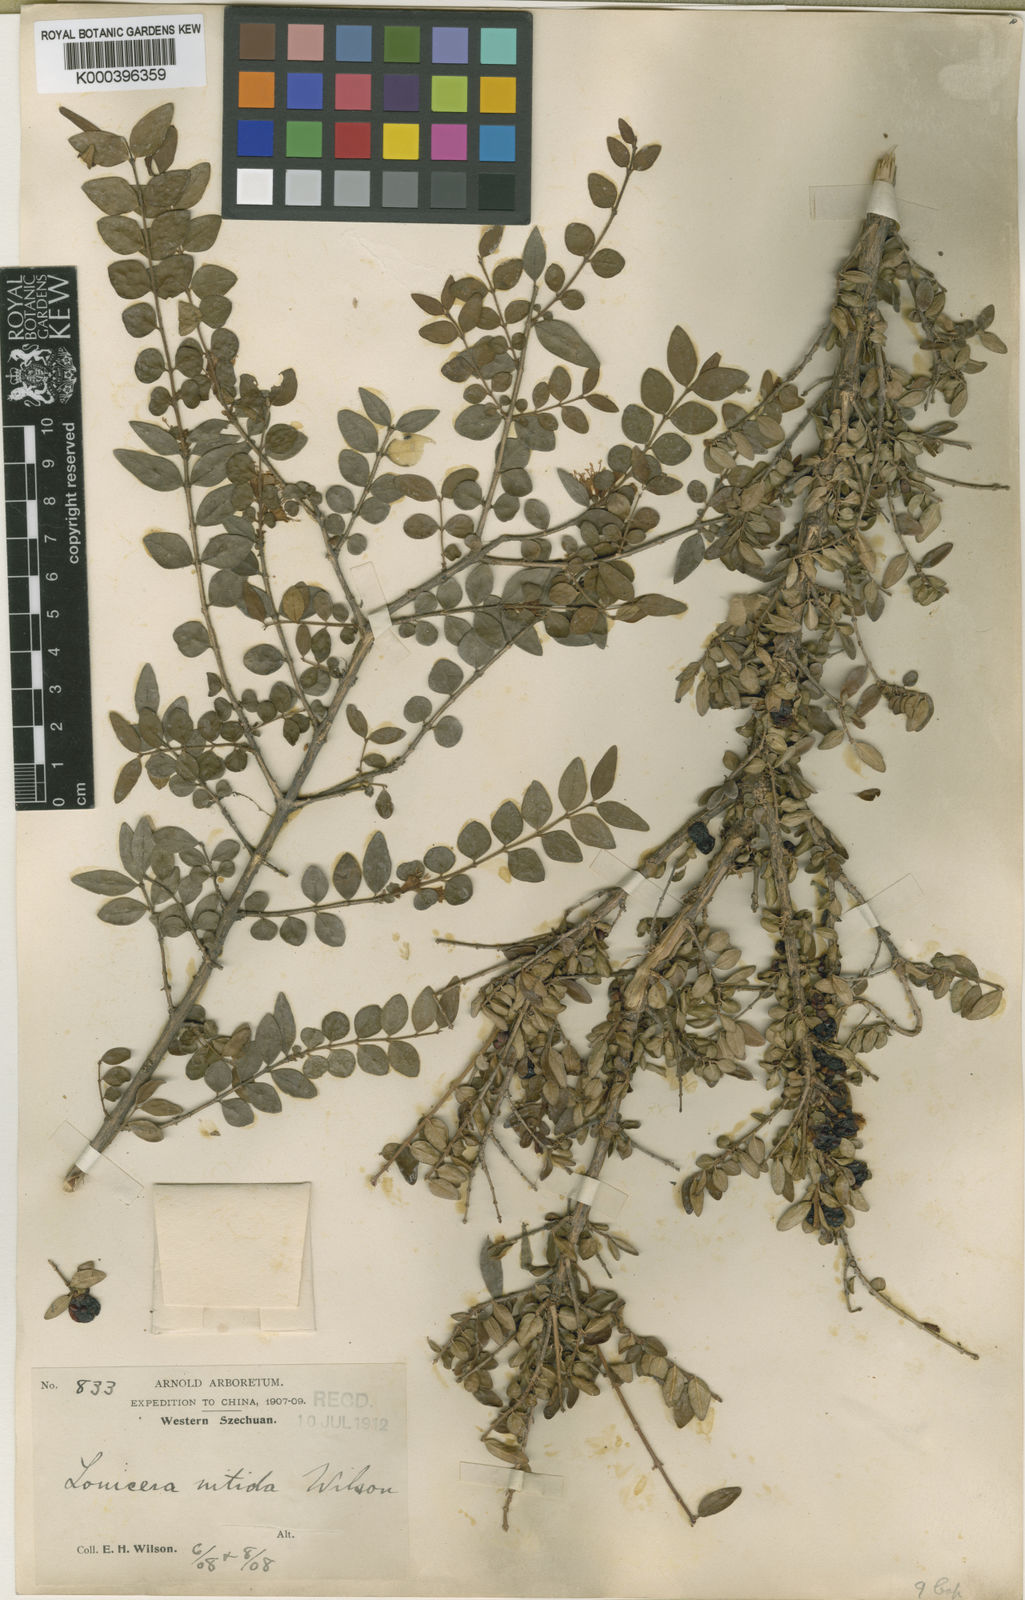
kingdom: Plantae
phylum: Tracheophyta
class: Magnoliopsida
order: Dipsacales
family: Caprifoliaceae
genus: Lonicera
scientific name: Lonicera pileata
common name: Box-leaved honeysuckle
